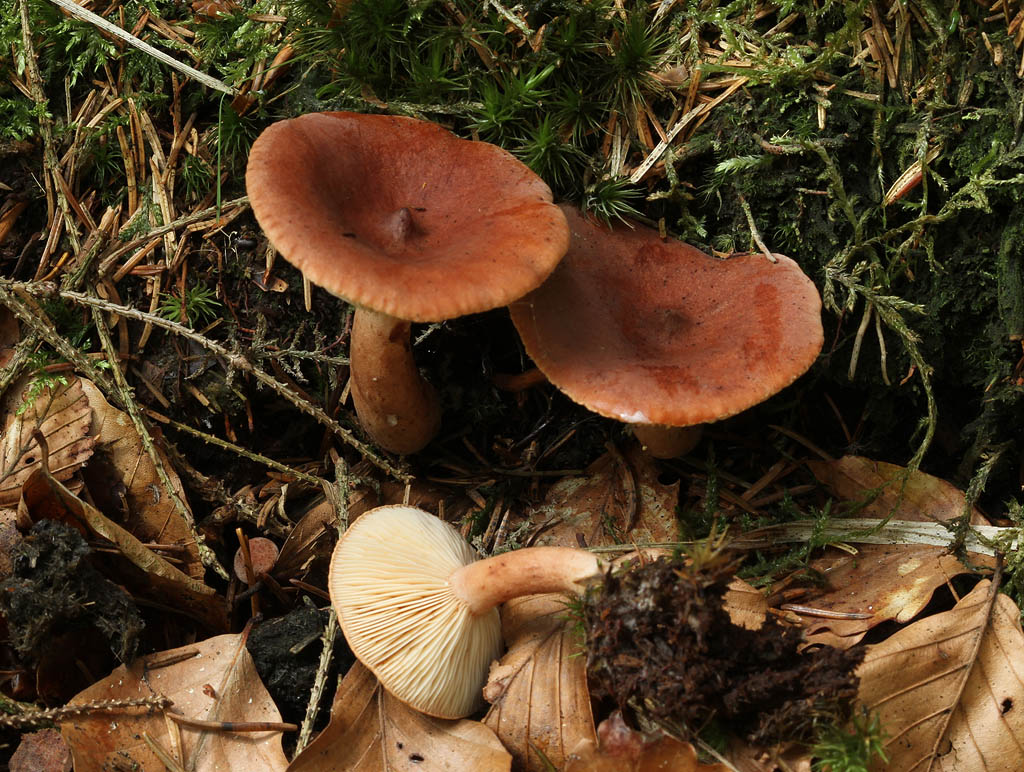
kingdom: Fungi
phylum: Basidiomycota
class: Agaricomycetes
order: Russulales
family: Russulaceae
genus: Lactarius
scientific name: Lactarius rufus
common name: rødbrun mælkehat
